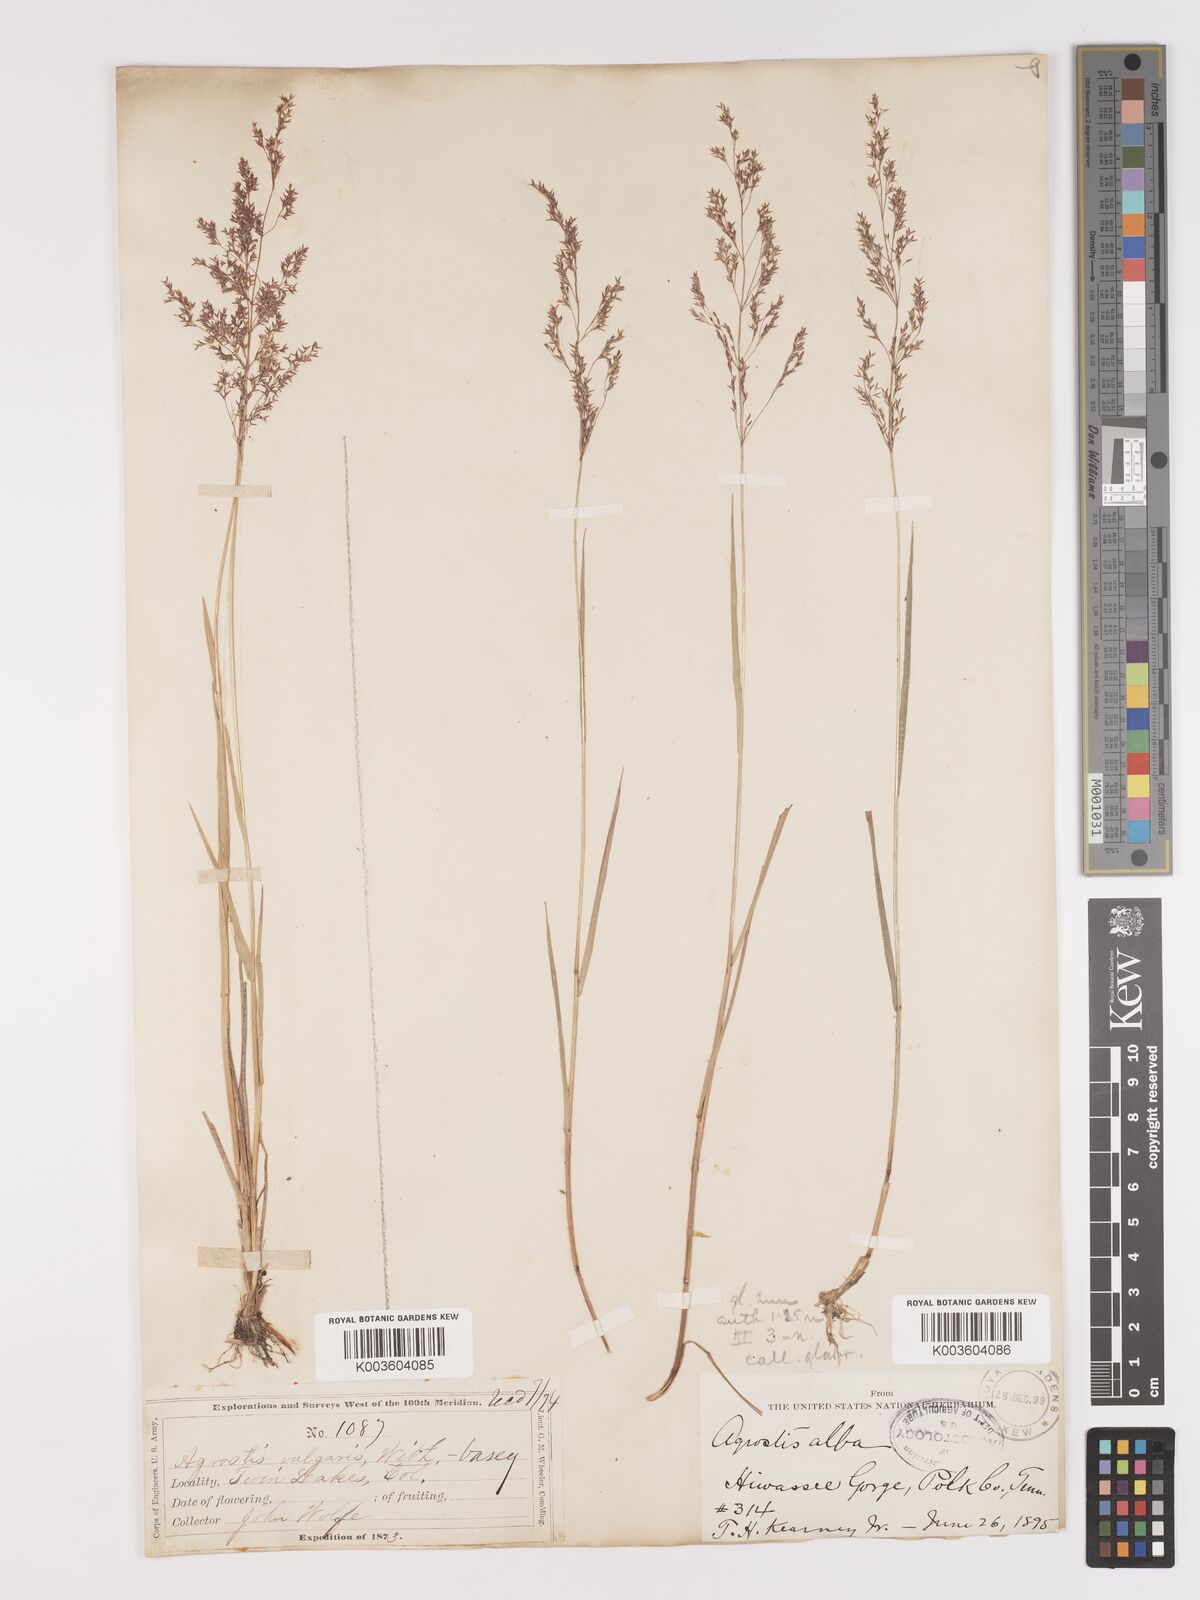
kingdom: Plantae
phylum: Tracheophyta
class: Liliopsida
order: Poales
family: Poaceae
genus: Agrostis
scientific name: Agrostis gigantea
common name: Black bent
